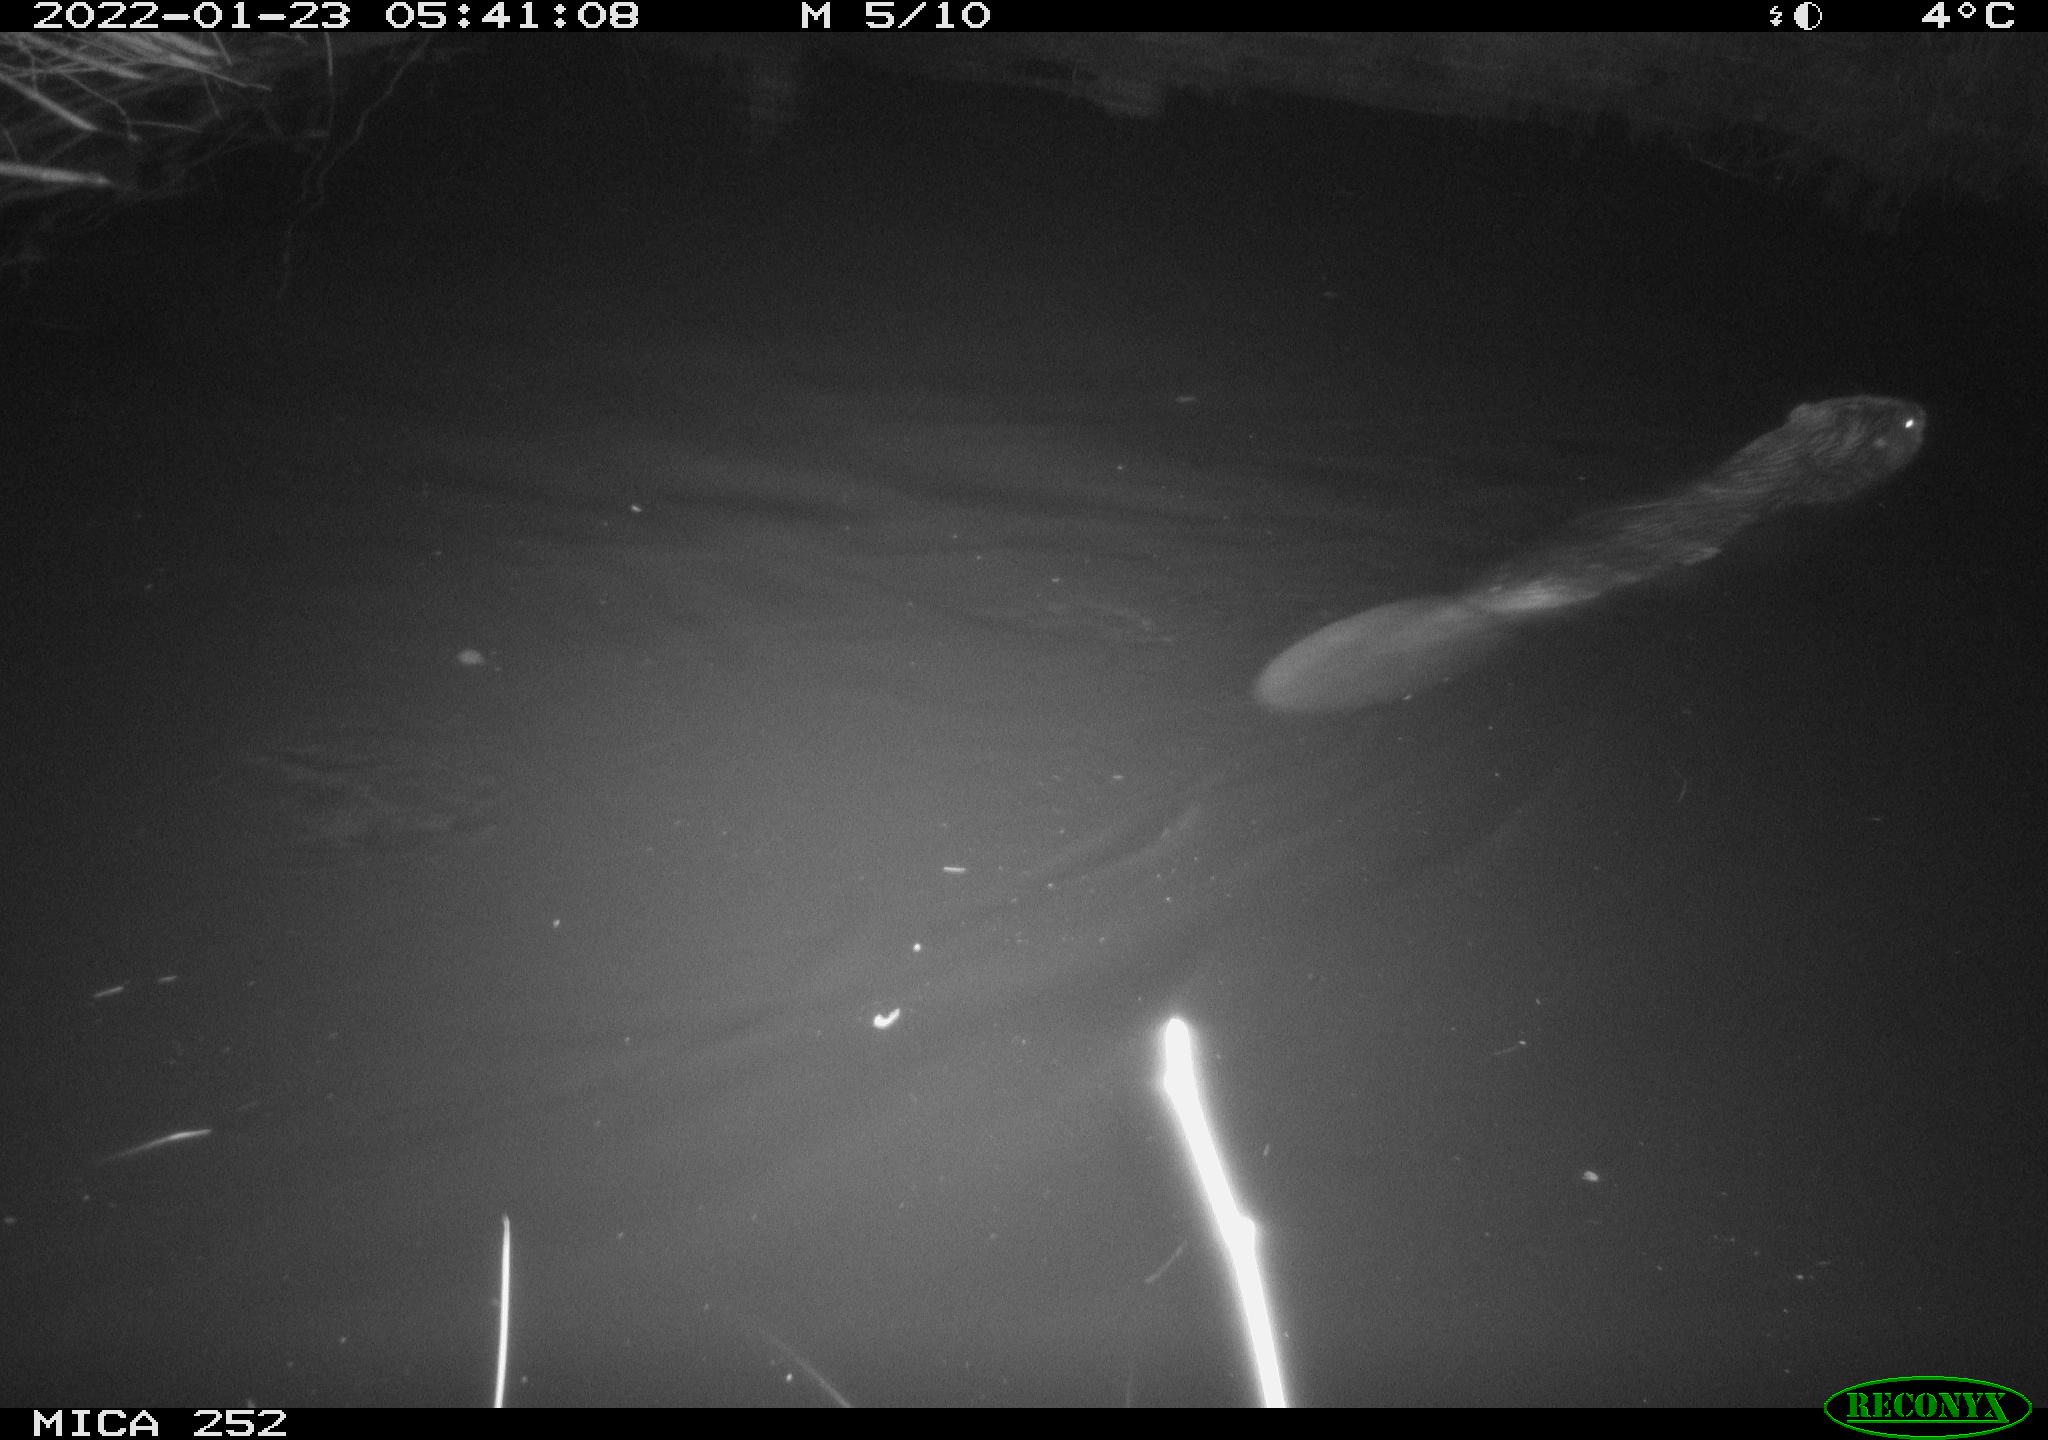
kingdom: Animalia
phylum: Chordata
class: Mammalia
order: Rodentia
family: Castoridae
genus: Castor
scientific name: Castor fiber
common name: Eurasian beaver
